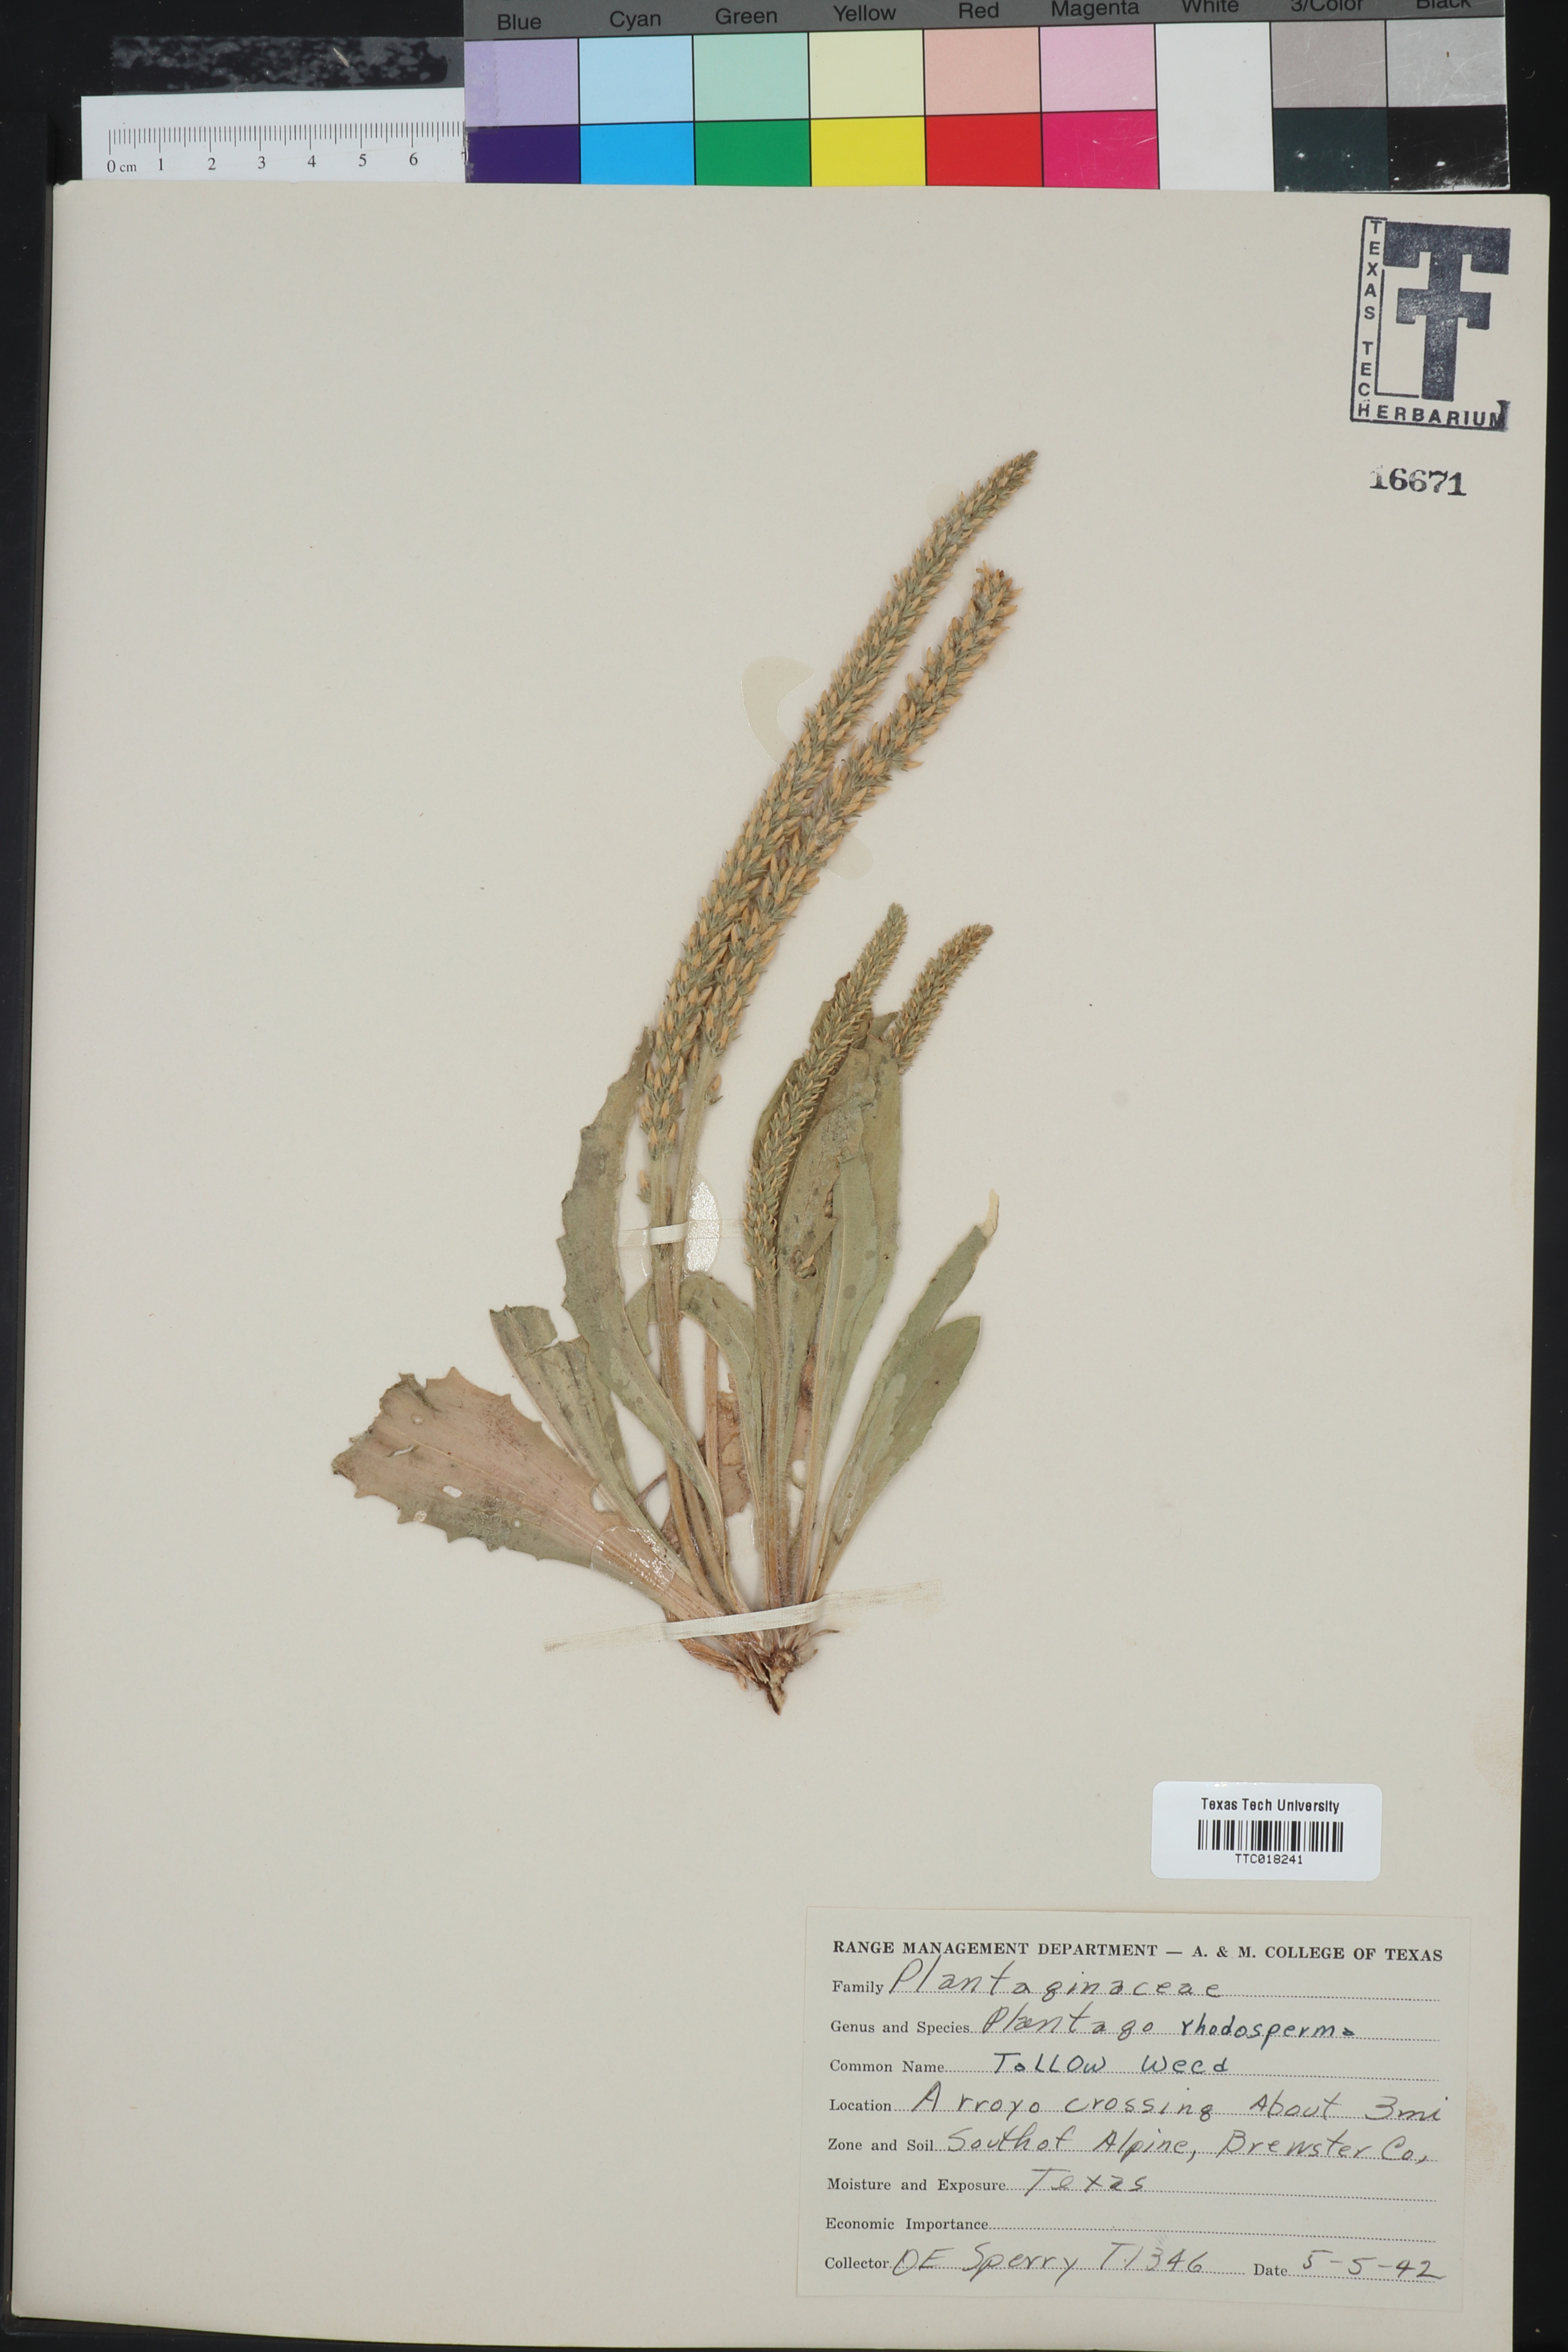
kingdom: Plantae
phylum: Tracheophyta
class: Magnoliopsida
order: Lamiales
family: Plantaginaceae
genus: Plantago
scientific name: Plantago rhodosperma
